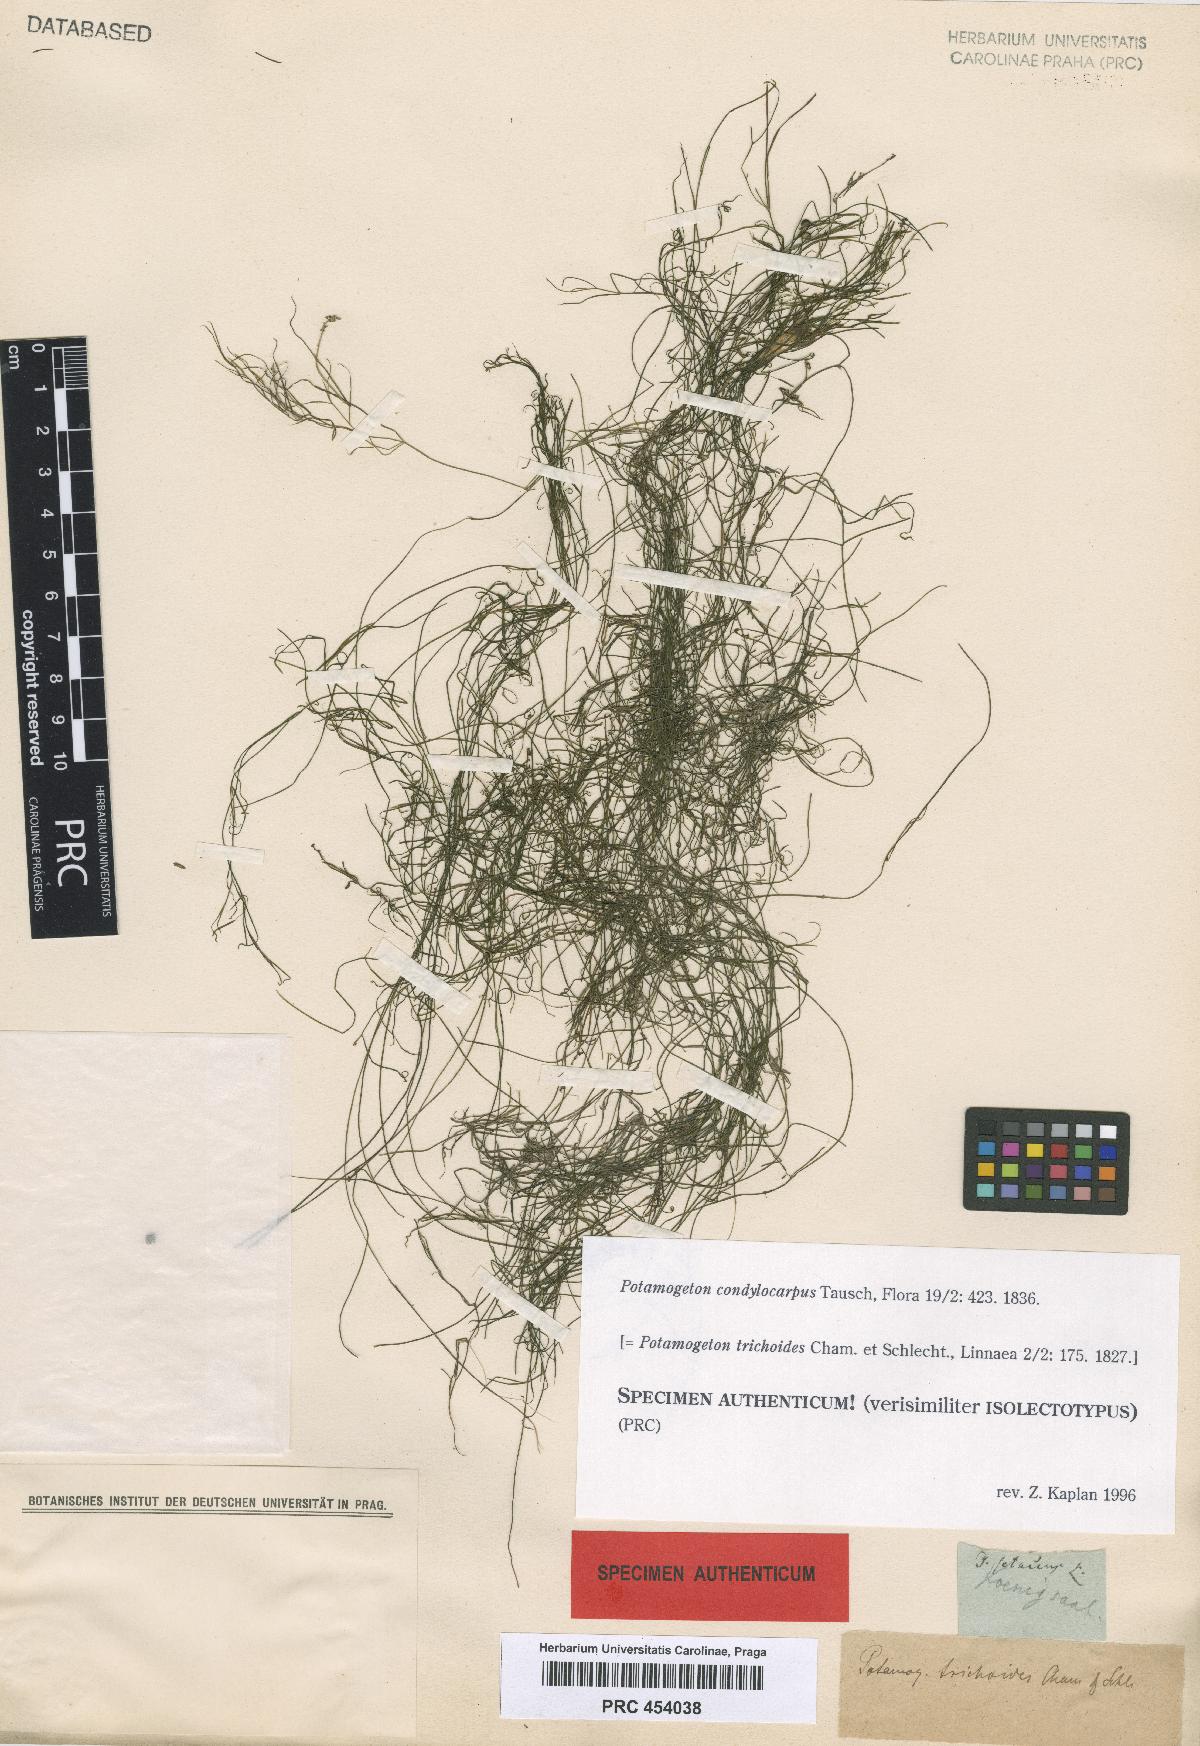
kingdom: Plantae
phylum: Tracheophyta
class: Liliopsida
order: Alismatales
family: Potamogetonaceae
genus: Potamogeton
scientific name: Potamogeton trichoides
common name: Hairlike pondweed
